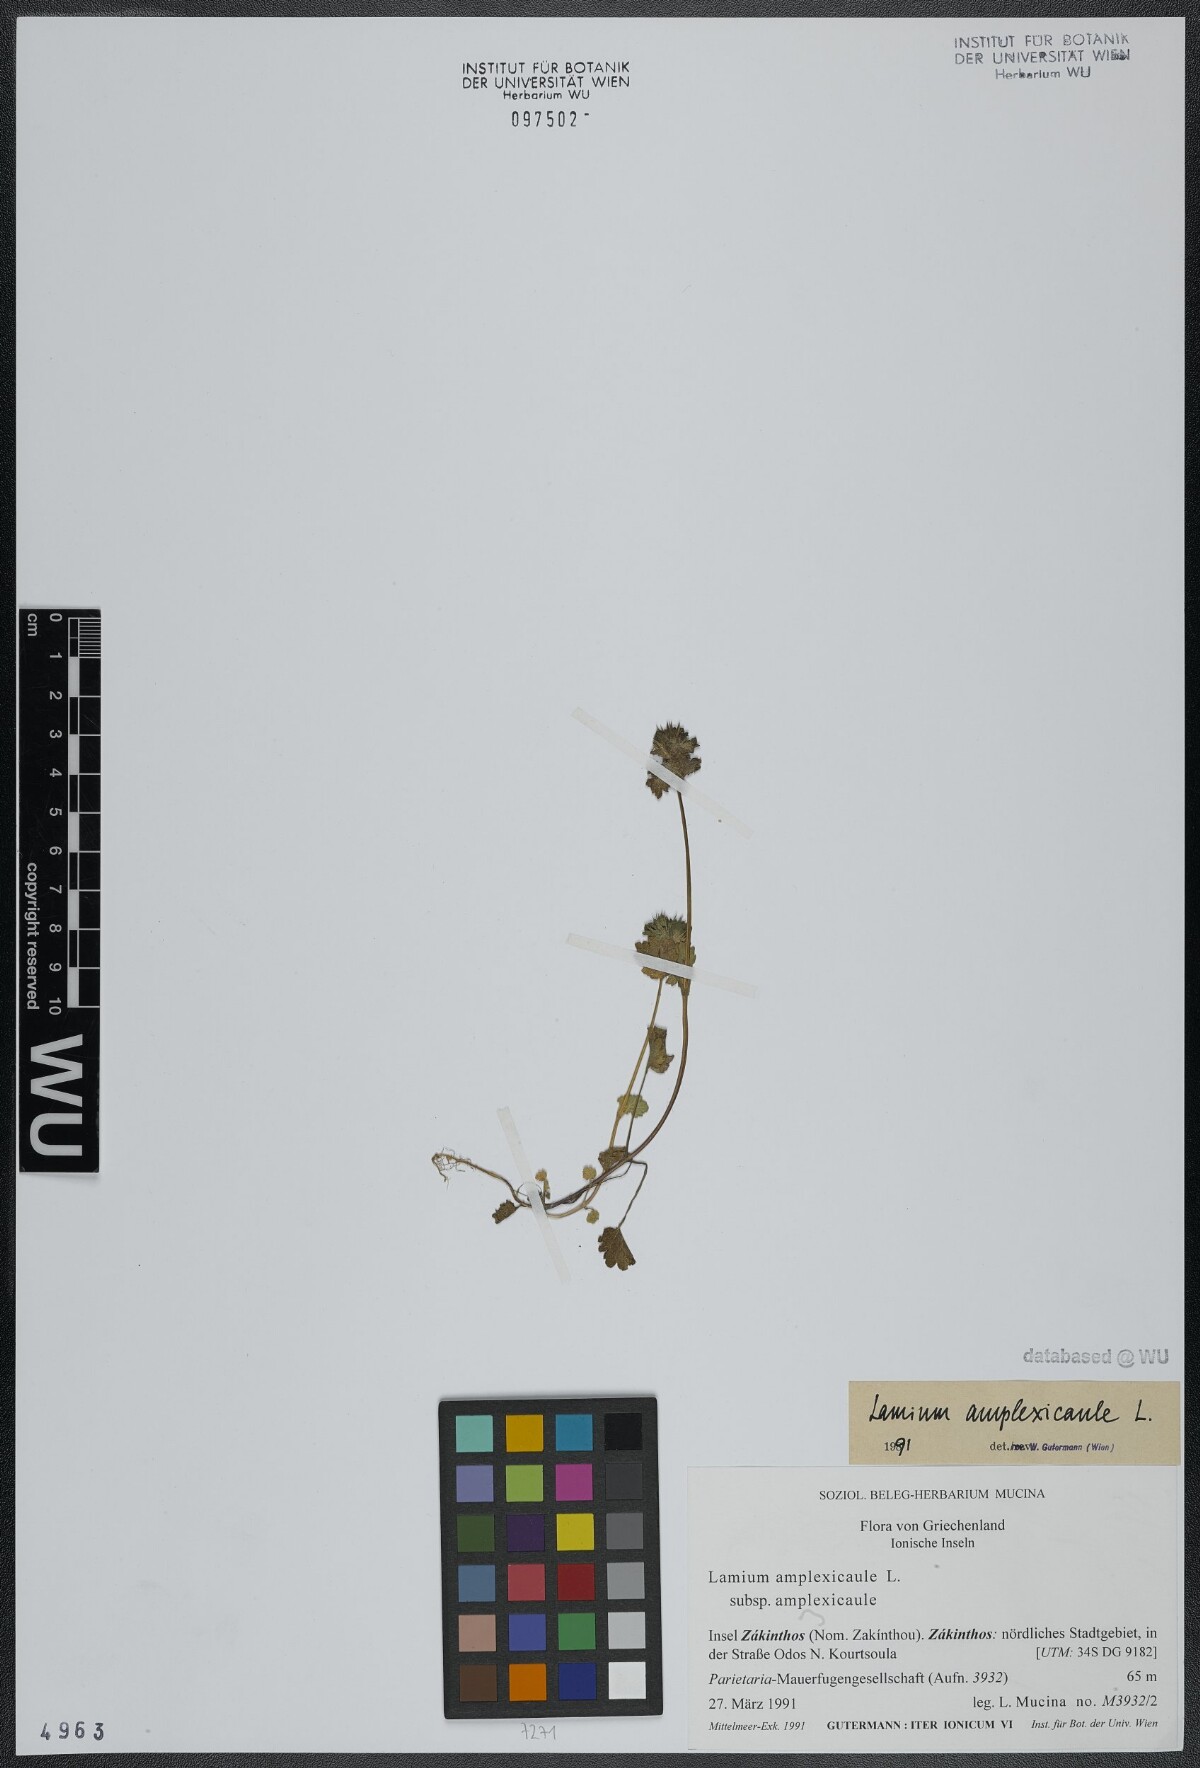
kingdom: Plantae
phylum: Tracheophyta
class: Magnoliopsida
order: Lamiales
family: Lamiaceae
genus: Lamium
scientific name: Lamium amplexicaule
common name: Henbit dead-nettle
